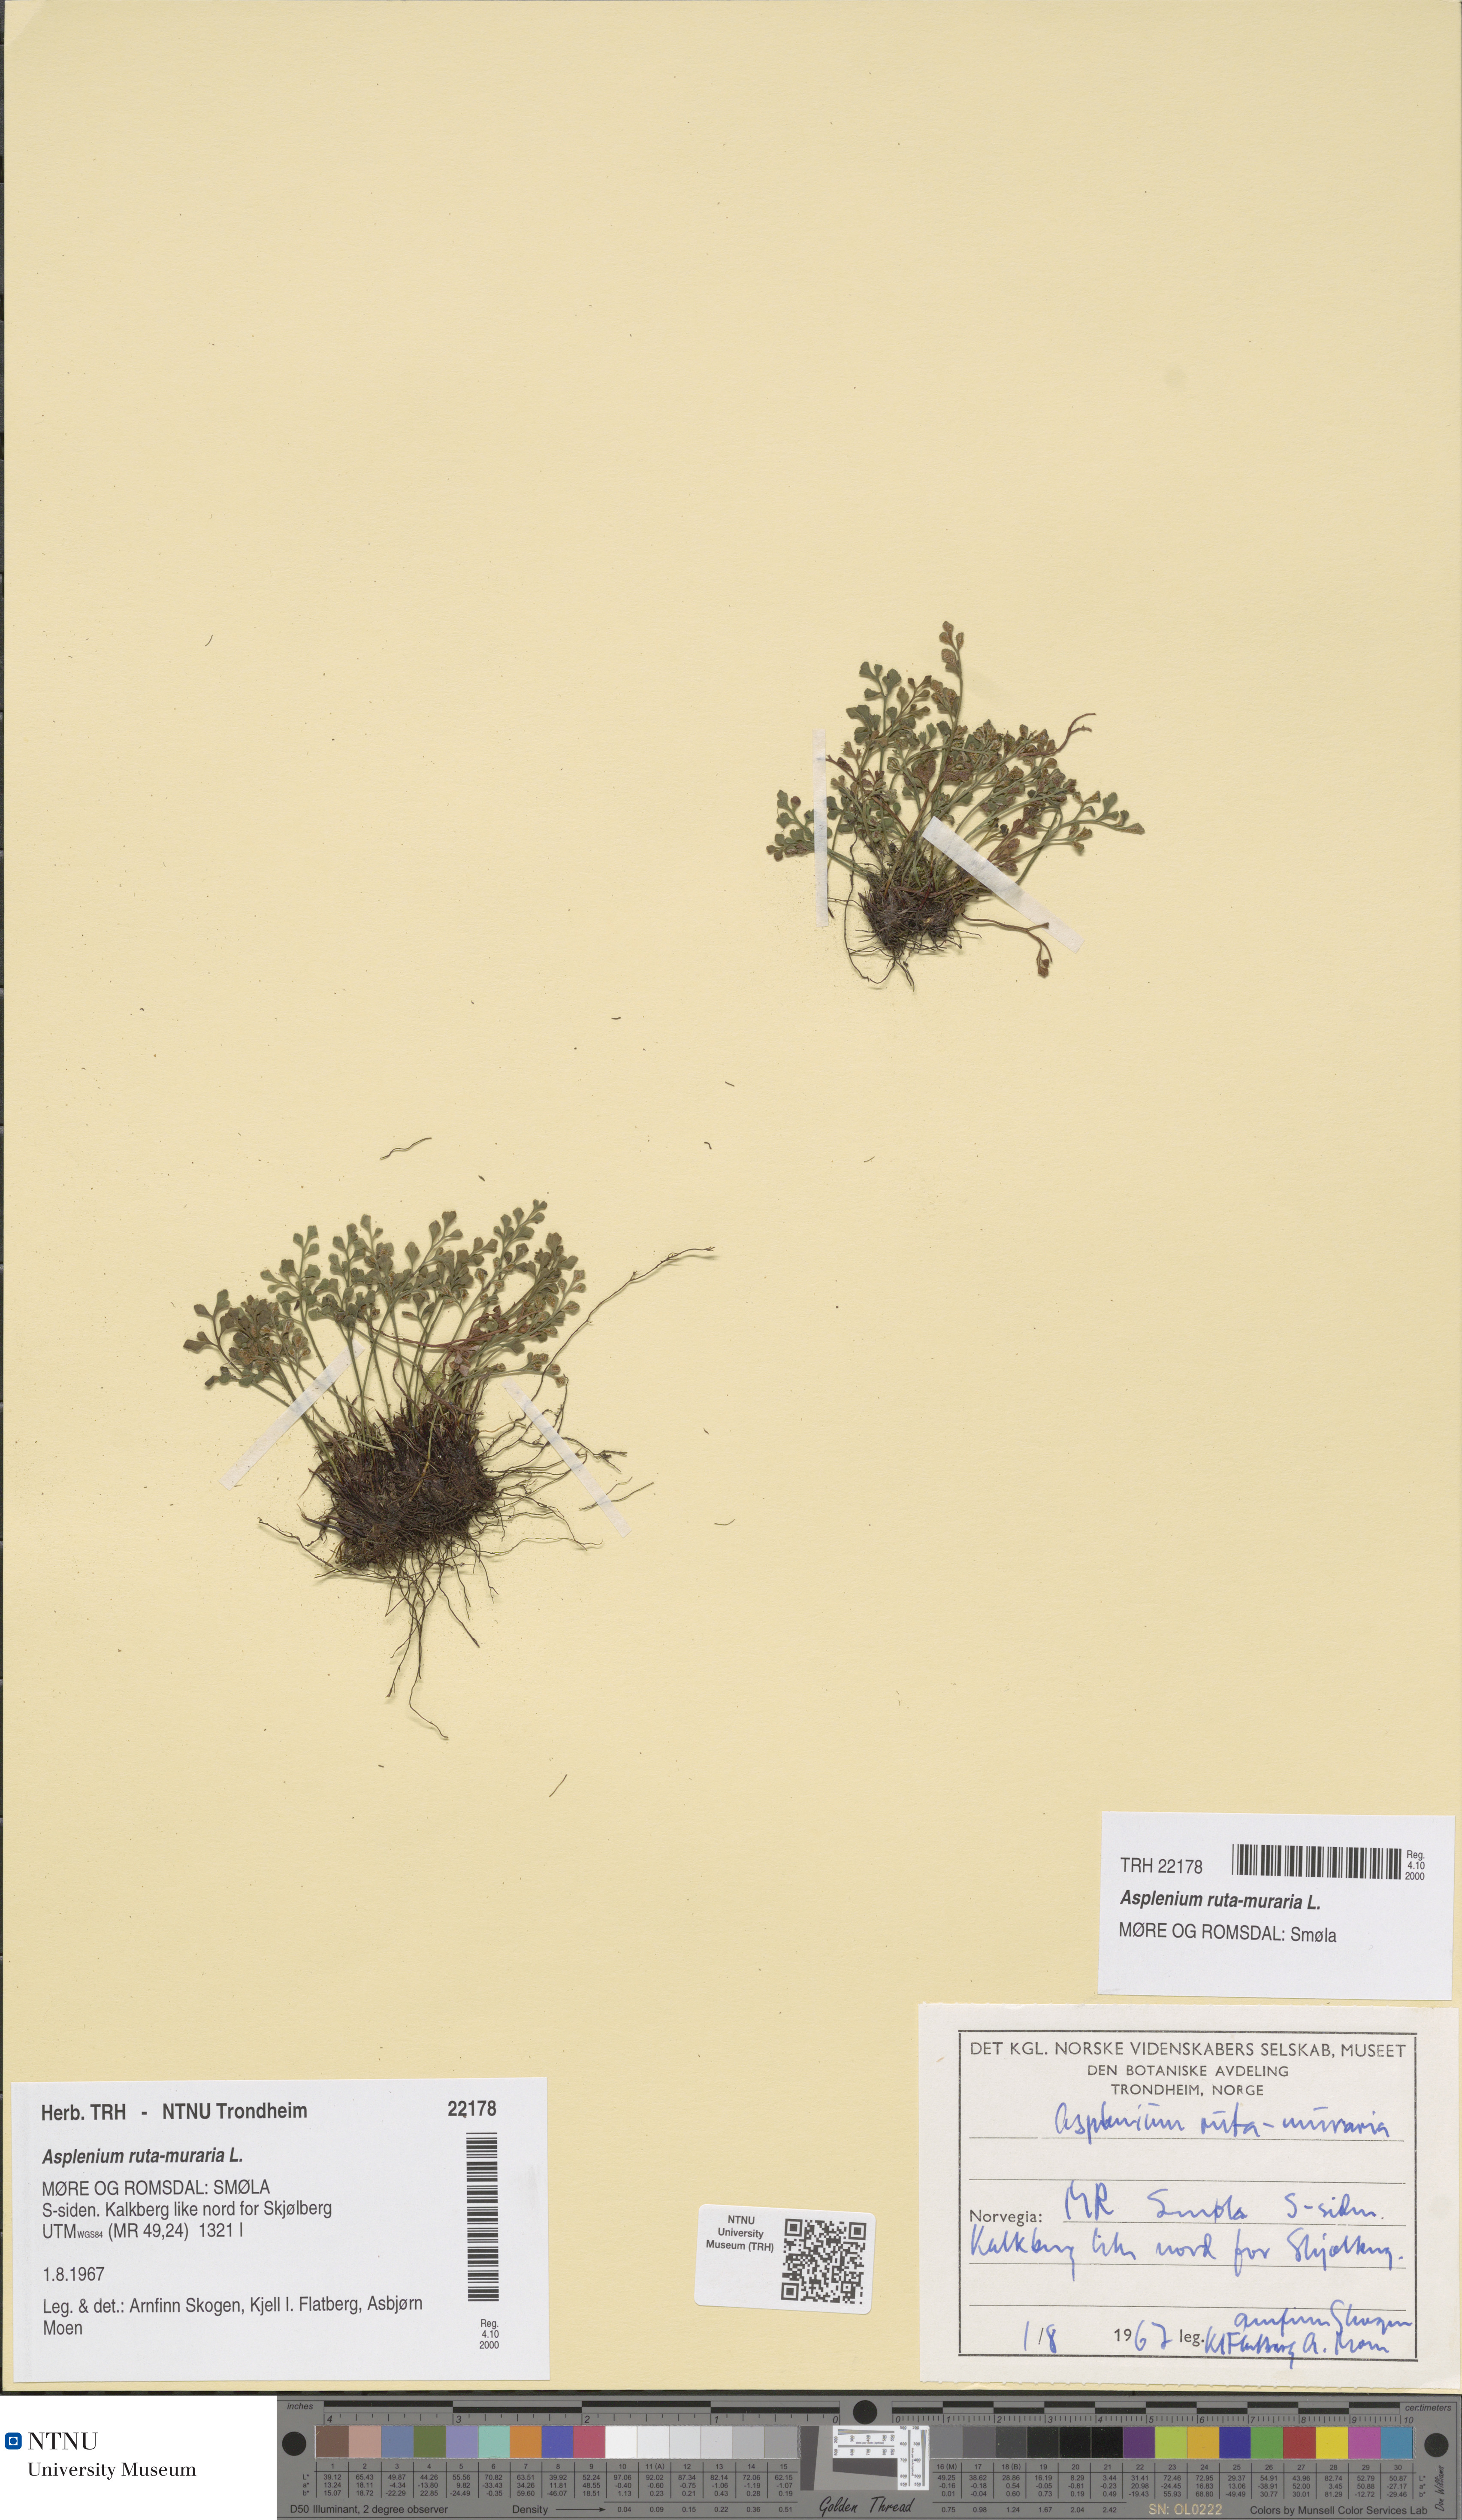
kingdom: Plantae
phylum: Tracheophyta
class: Polypodiopsida
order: Polypodiales
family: Aspleniaceae
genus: Asplenium
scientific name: Asplenium ruta-muraria
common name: Wall-rue
